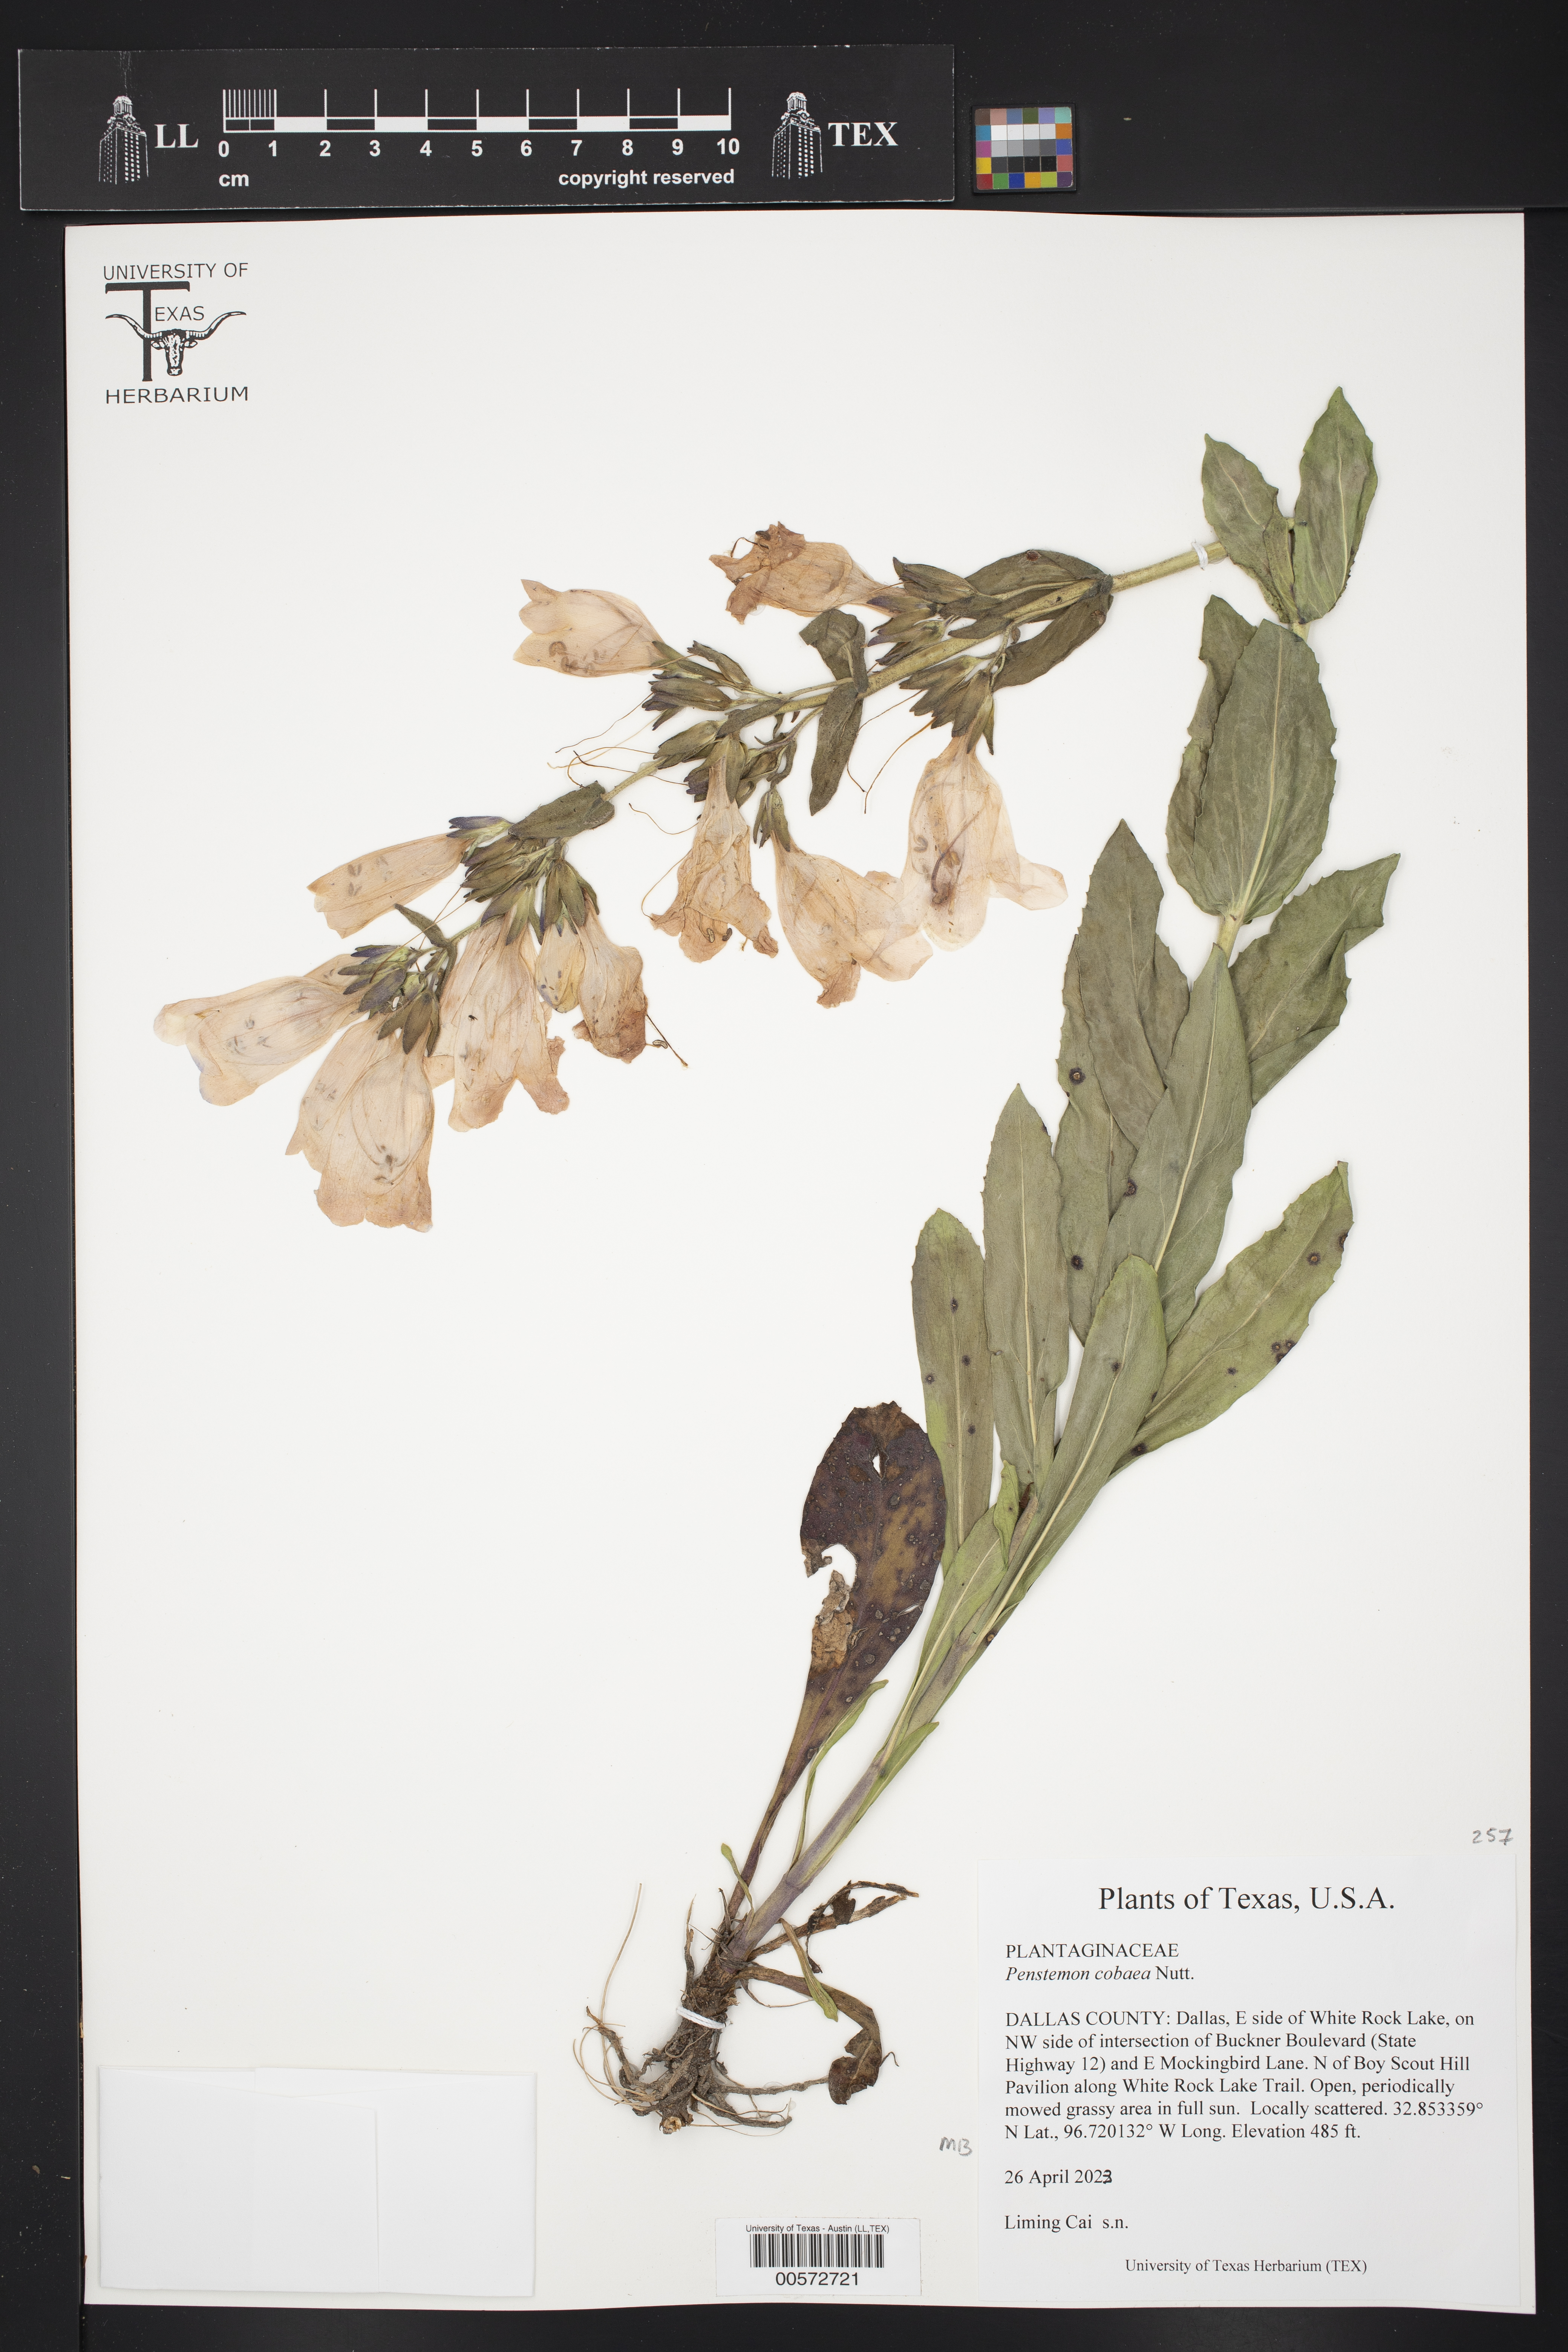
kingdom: Plantae
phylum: Tracheophyta
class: Magnoliopsida
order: Lamiales
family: Plantaginaceae
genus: Penstemon
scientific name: Penstemon cobaea
